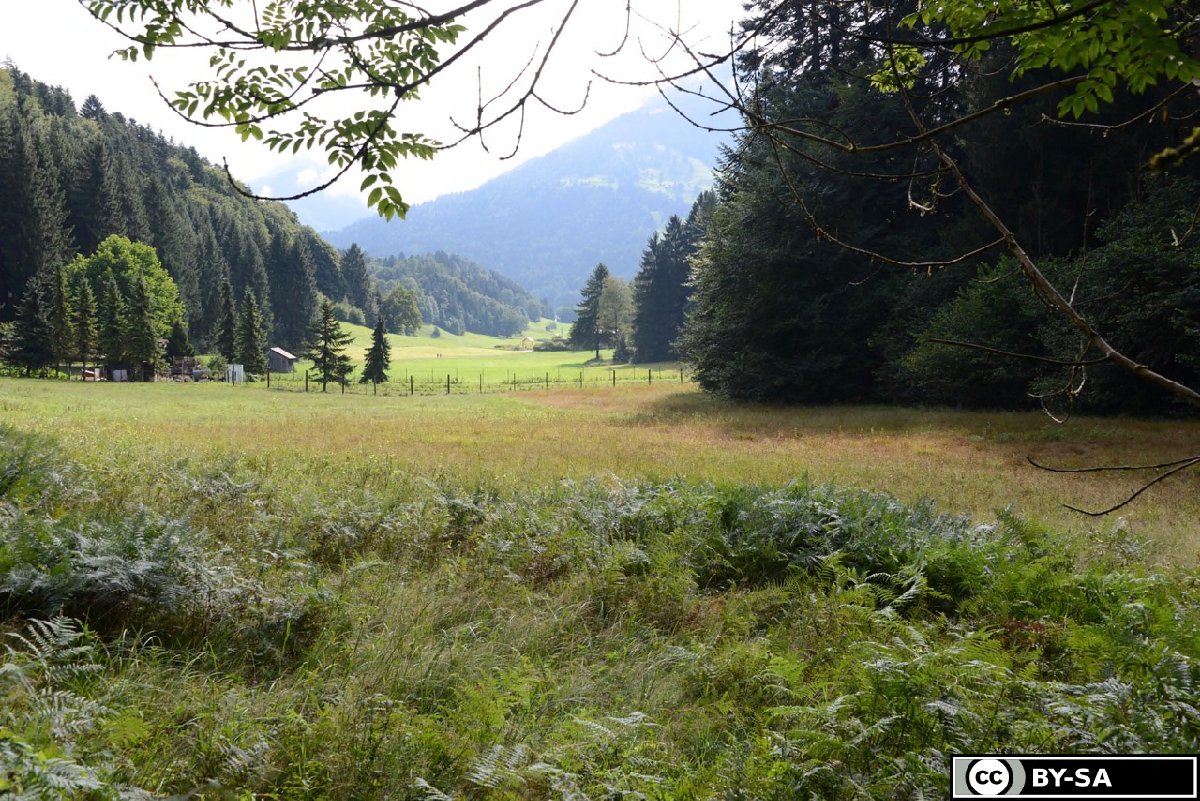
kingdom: Plantae
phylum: Tracheophyta
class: Magnoliopsida
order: Asterales
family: Campanulaceae
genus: Lobelia
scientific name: Lobelia siphilitica
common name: Great lobelia
